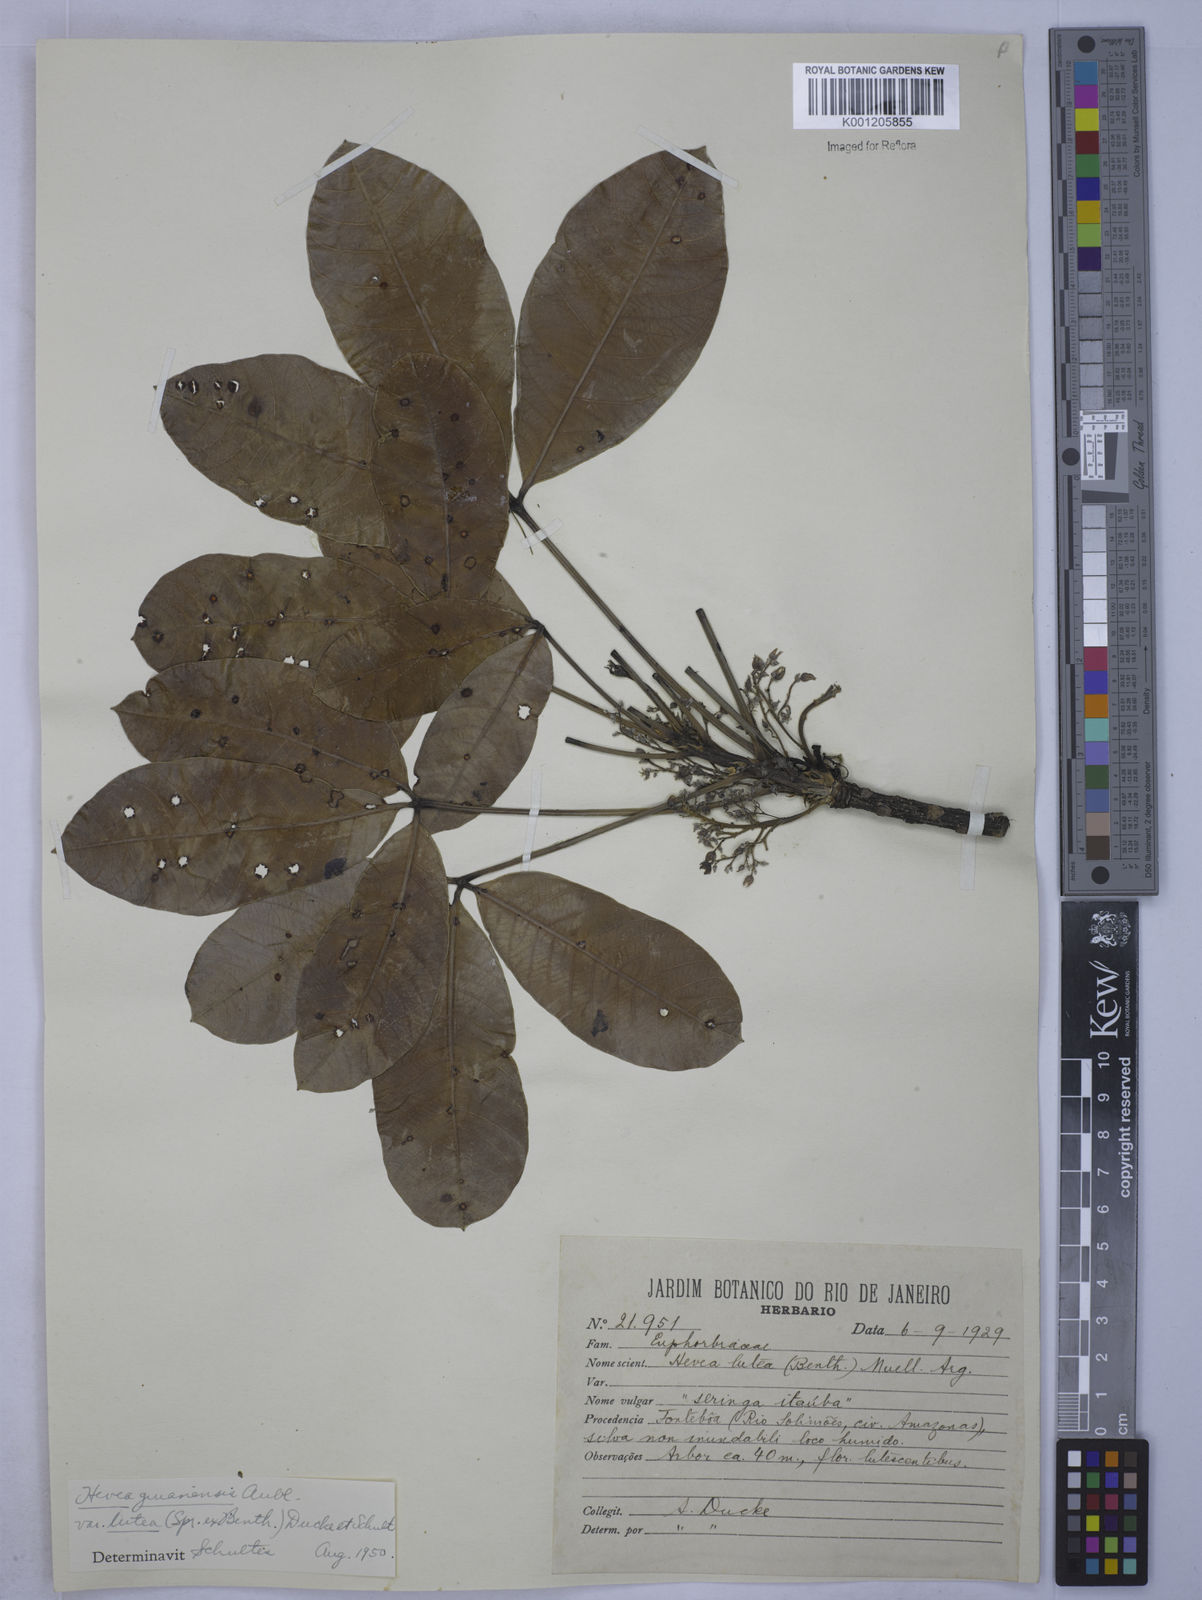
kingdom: Plantae
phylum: Tracheophyta
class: Magnoliopsida
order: Malpighiales
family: Euphorbiaceae
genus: Hevea
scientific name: Hevea guianensis
